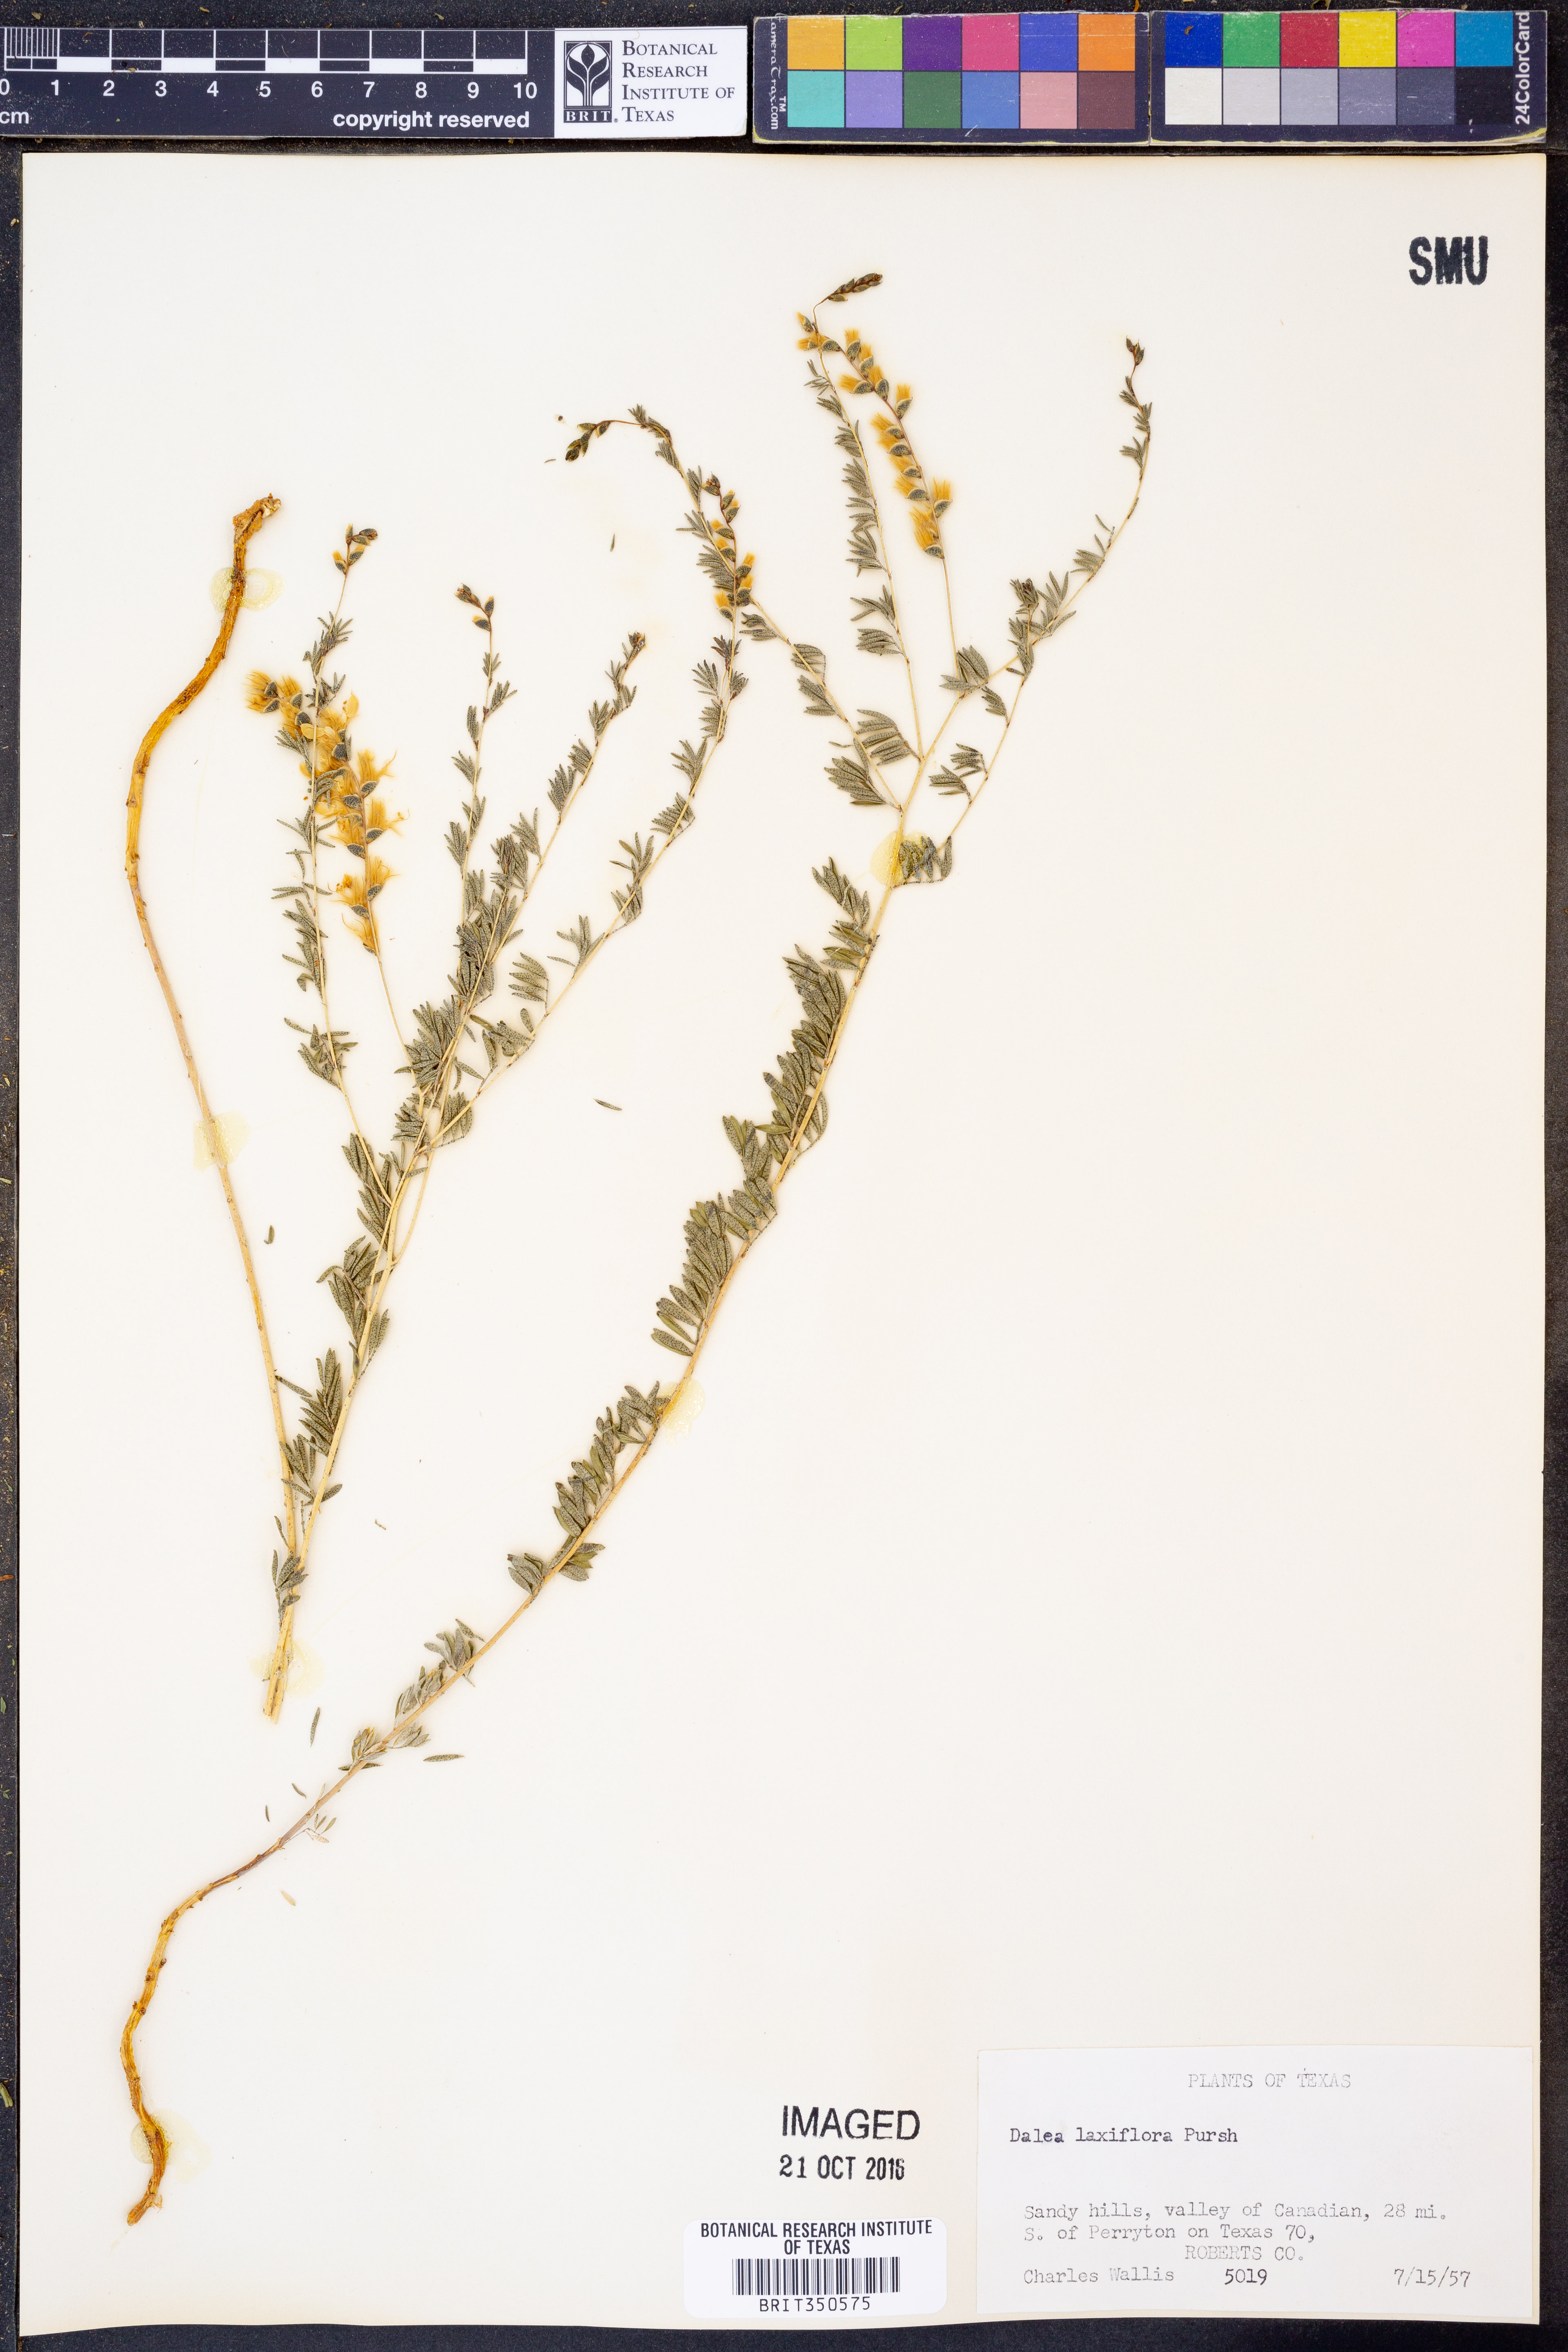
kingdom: Plantae
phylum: Tracheophyta
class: Magnoliopsida
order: Fabales
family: Fabaceae
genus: Dalea
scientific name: Dalea hegewischiana
